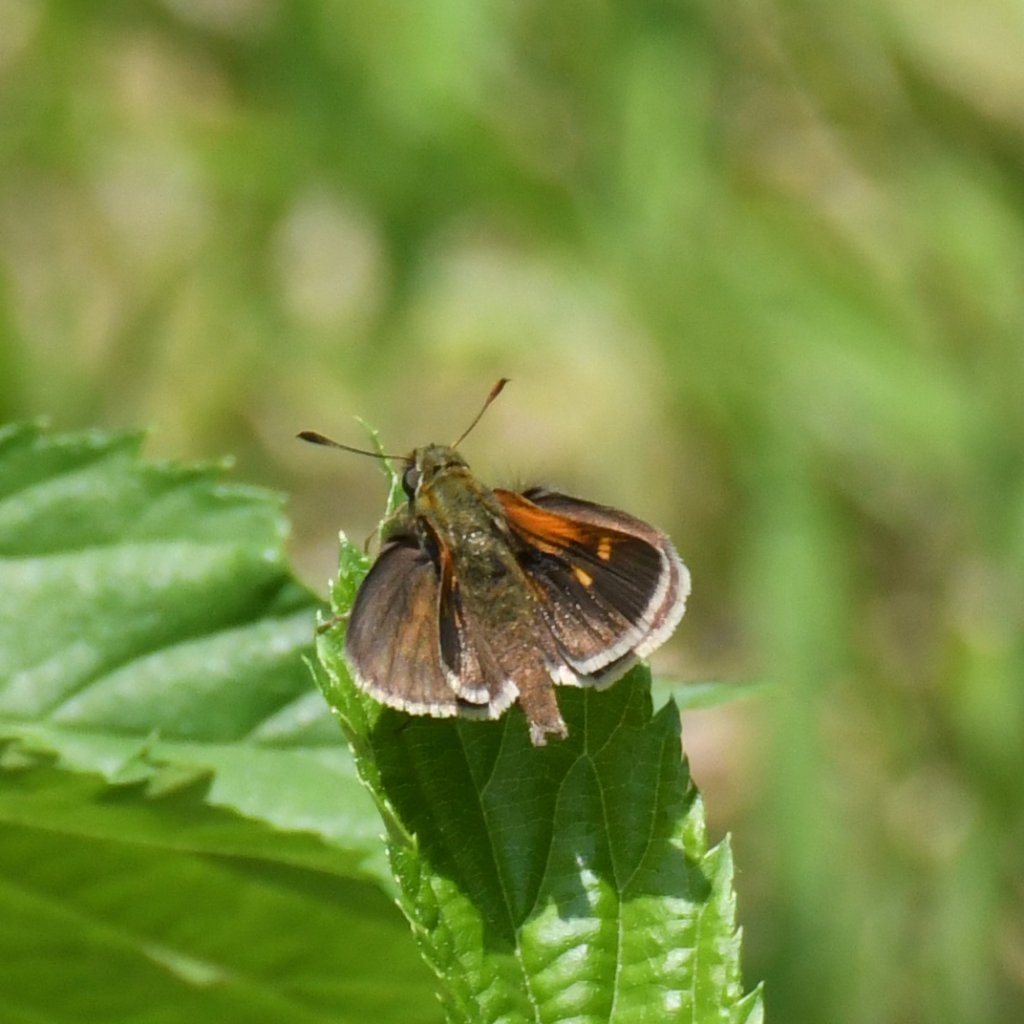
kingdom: Animalia
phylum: Arthropoda
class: Insecta
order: Lepidoptera
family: Hesperiidae
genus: Polites
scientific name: Polites themistocles
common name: Tawny-edged Skipper
